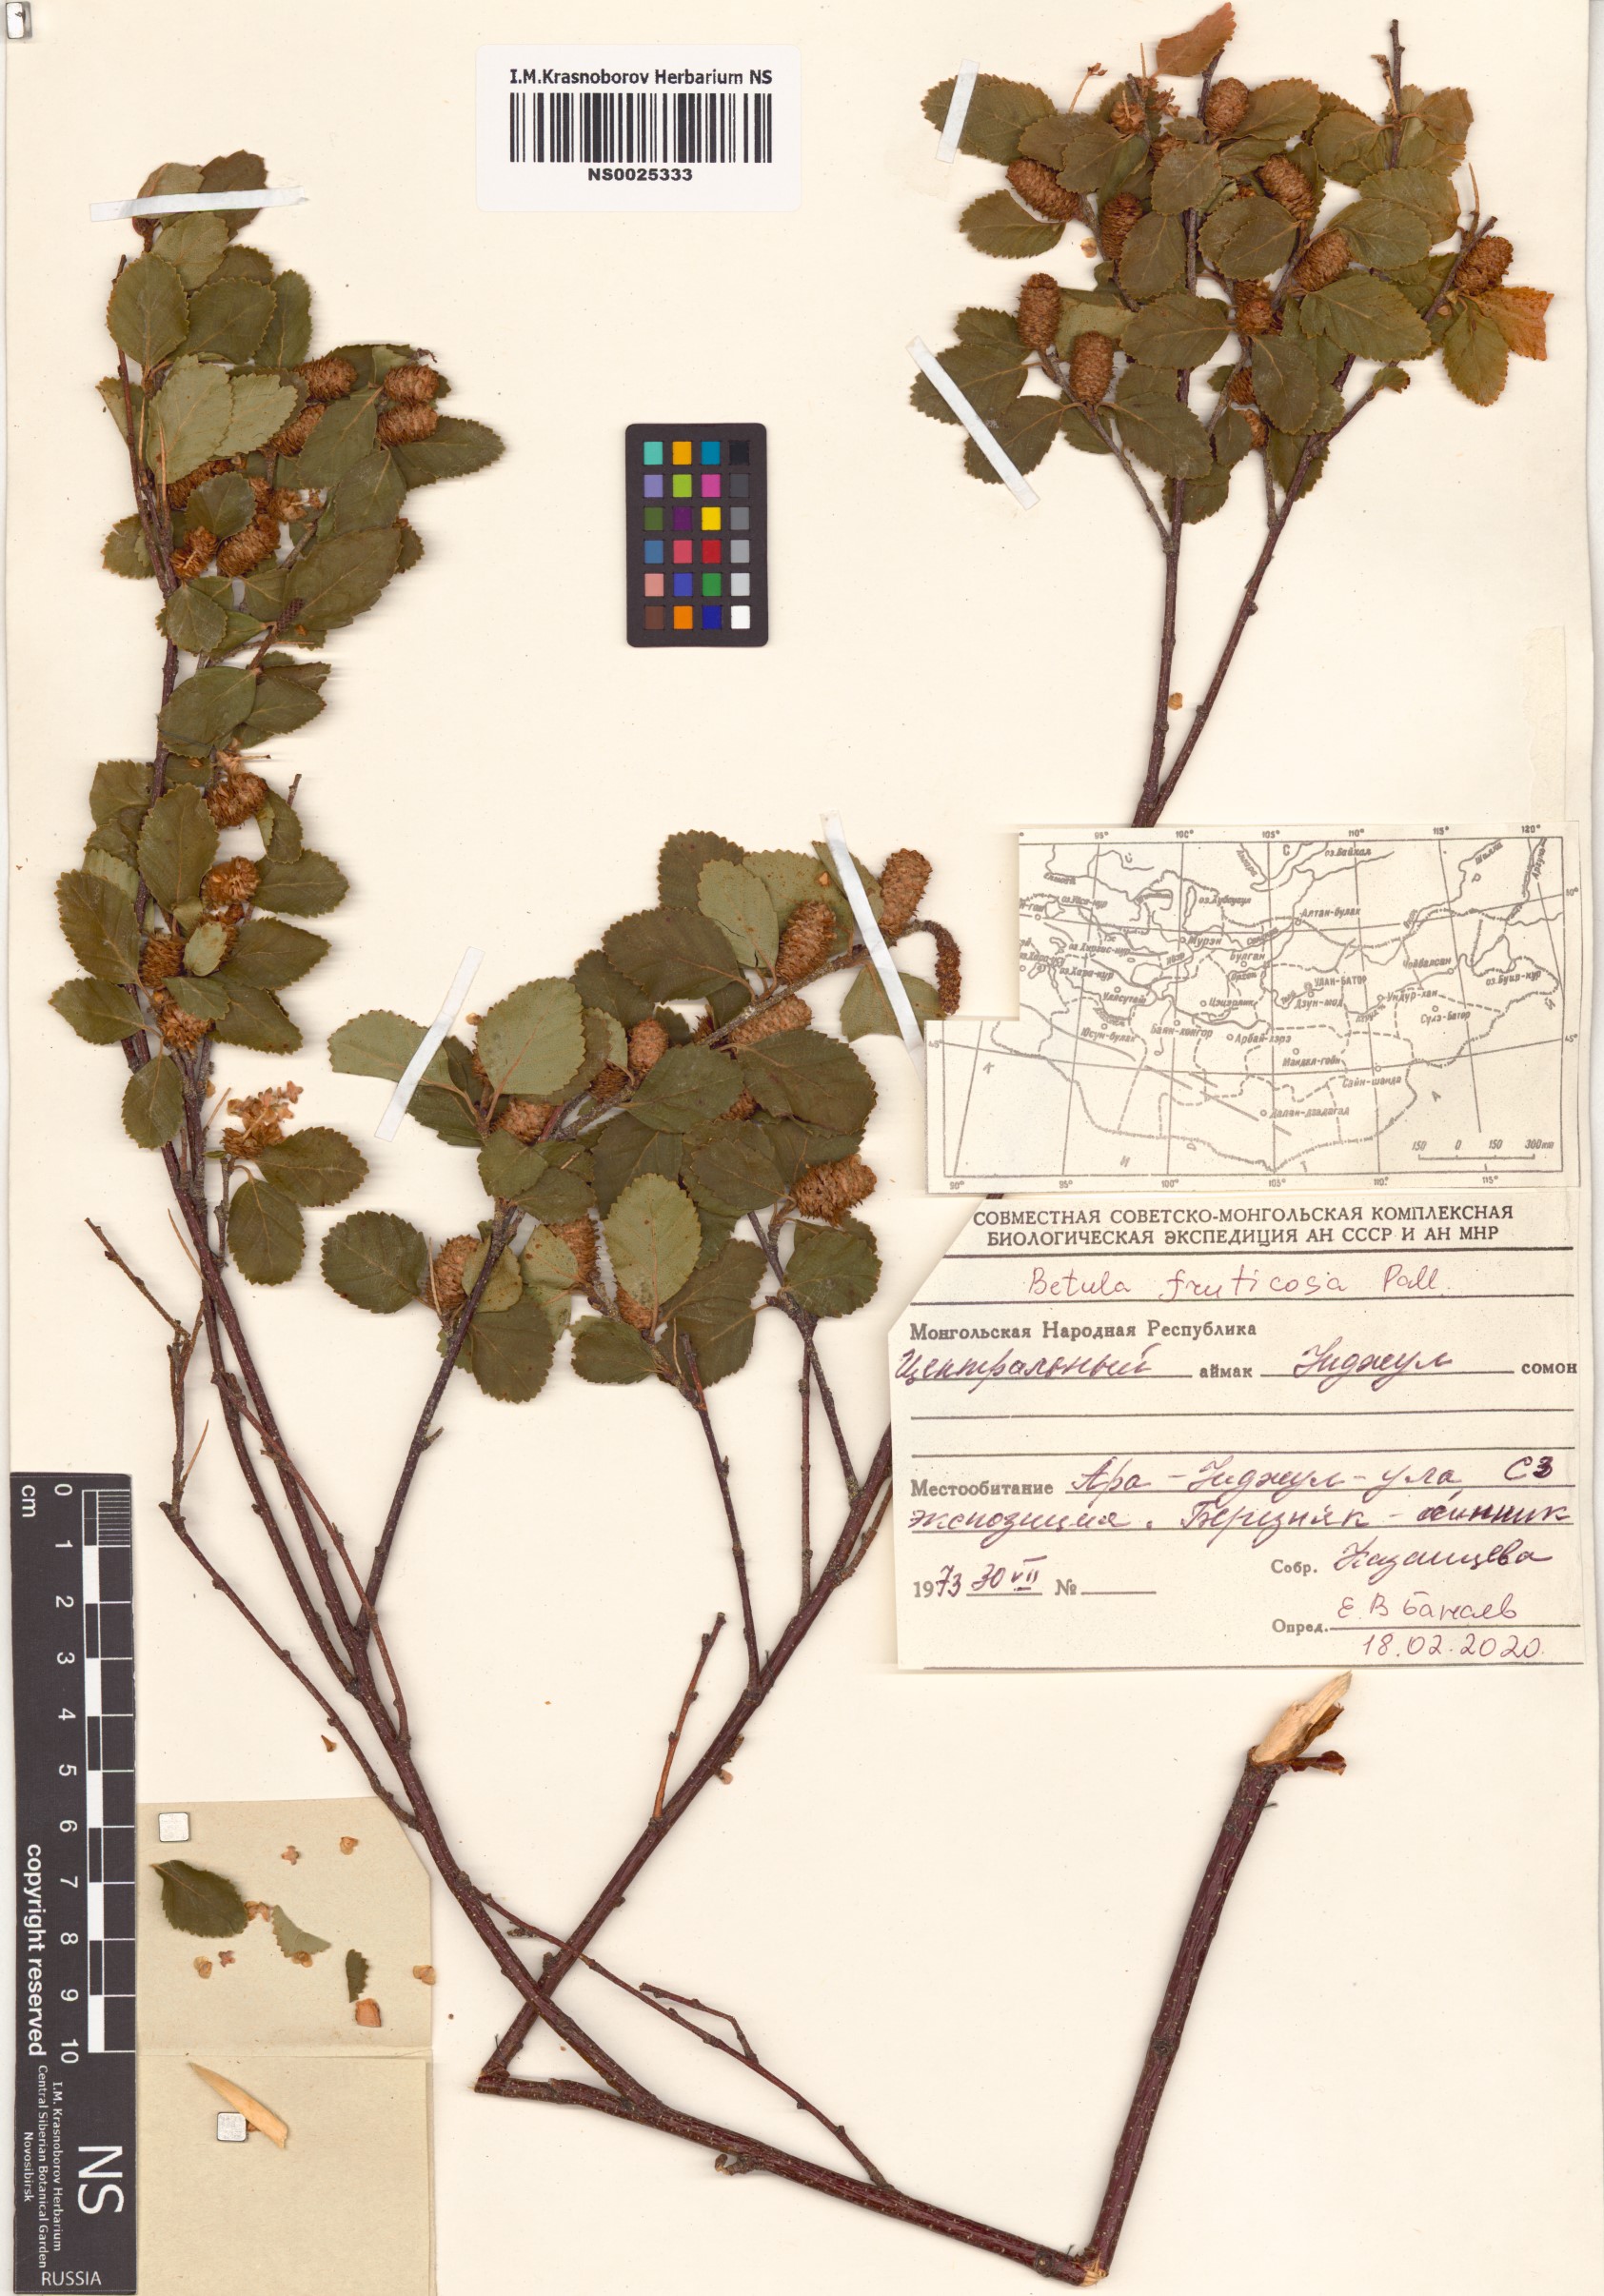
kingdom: Plantae
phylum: Tracheophyta
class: Magnoliopsida
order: Fagales
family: Betulaceae
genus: Betula
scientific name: Betula fruticosa
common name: Japanese bog birch
